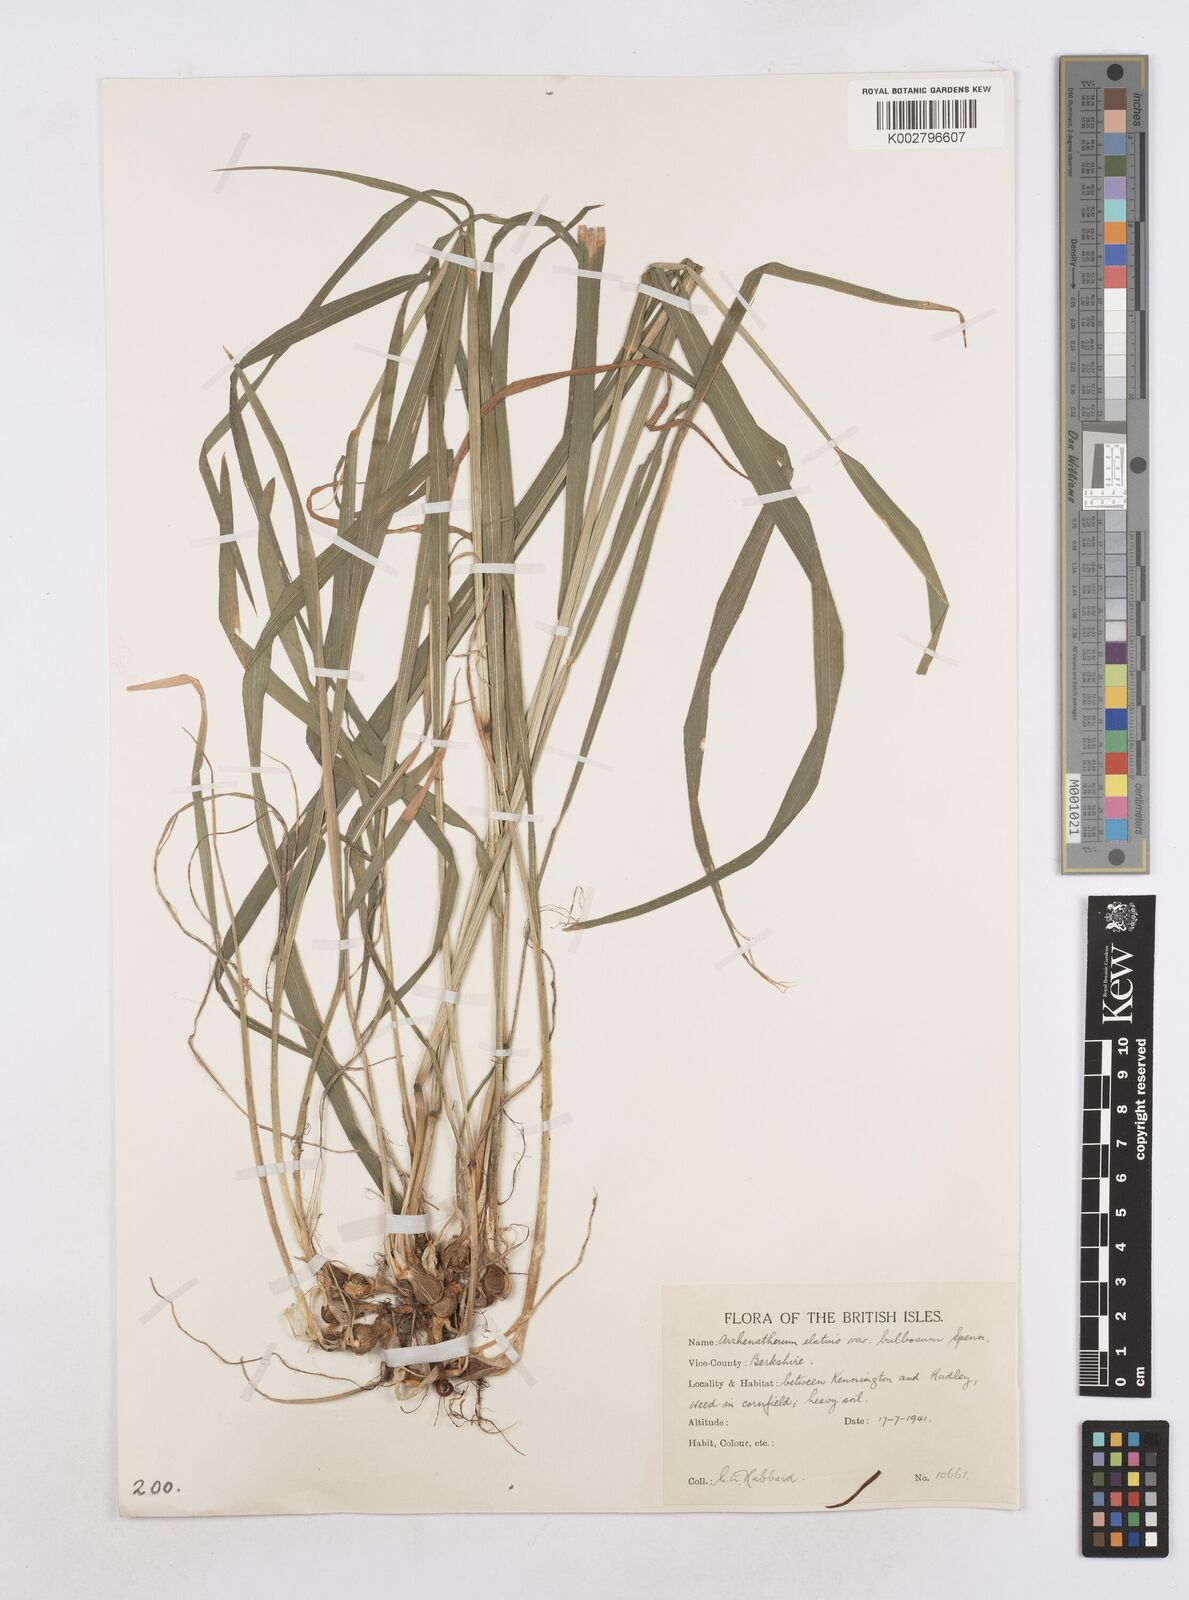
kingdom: Plantae
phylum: Tracheophyta
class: Liliopsida
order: Poales
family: Poaceae
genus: Arrhenatherum
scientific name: Arrhenatherum elatius
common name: Tall oatgrass
